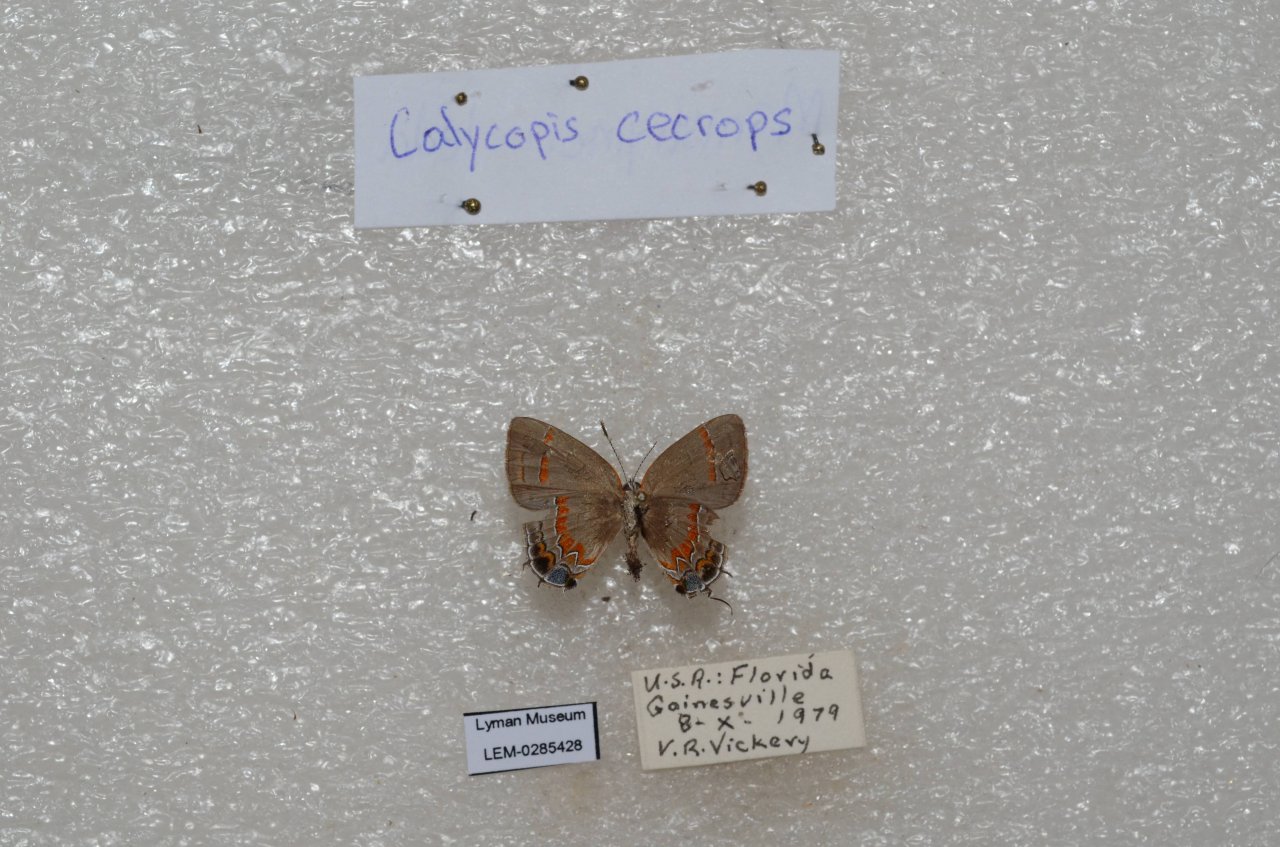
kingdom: Animalia
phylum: Arthropoda
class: Insecta
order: Lepidoptera
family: Lycaenidae
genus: Calycopis
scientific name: Calycopis cecrops
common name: Red-banded Hairstreak
